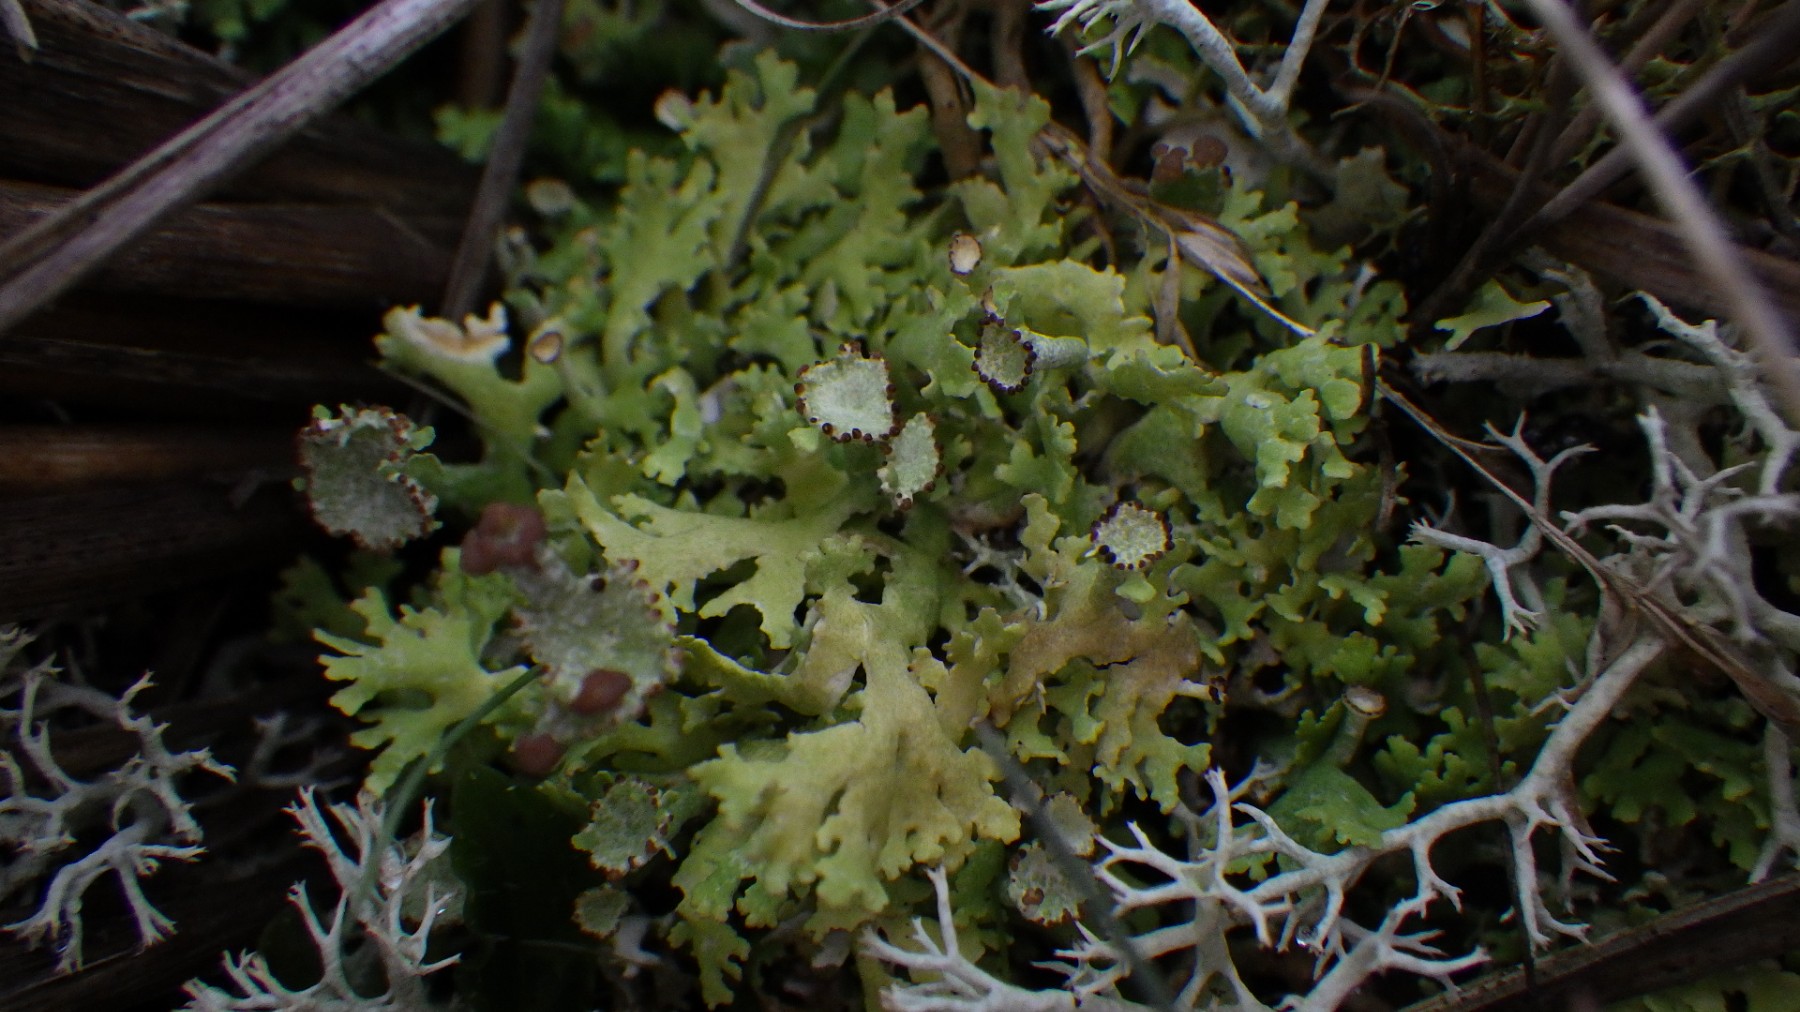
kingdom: Fungi
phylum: Ascomycota
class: Lecanoromycetes
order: Lecanorales
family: Cladoniaceae
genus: Cladonia
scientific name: Cladonia foliacea
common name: fliget bægerlav
